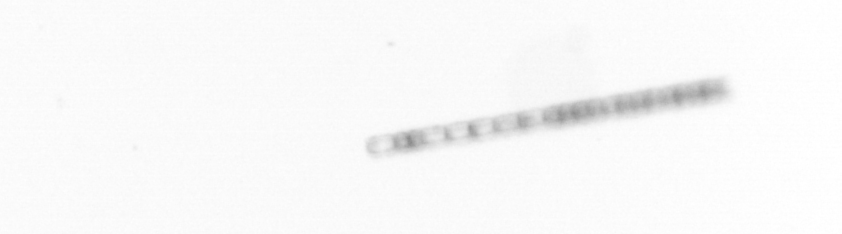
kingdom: Chromista
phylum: Ochrophyta
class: Bacillariophyceae
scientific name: Bacillariophyceae
